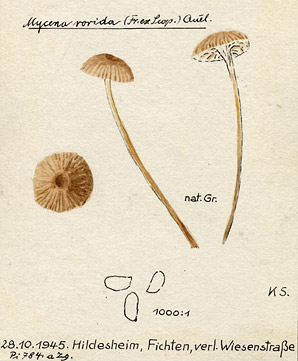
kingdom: Fungi
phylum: Basidiomycota
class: Agaricomycetes
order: Agaricales
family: Mycenaceae
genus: Roridomyces
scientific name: Roridomyces roridus
